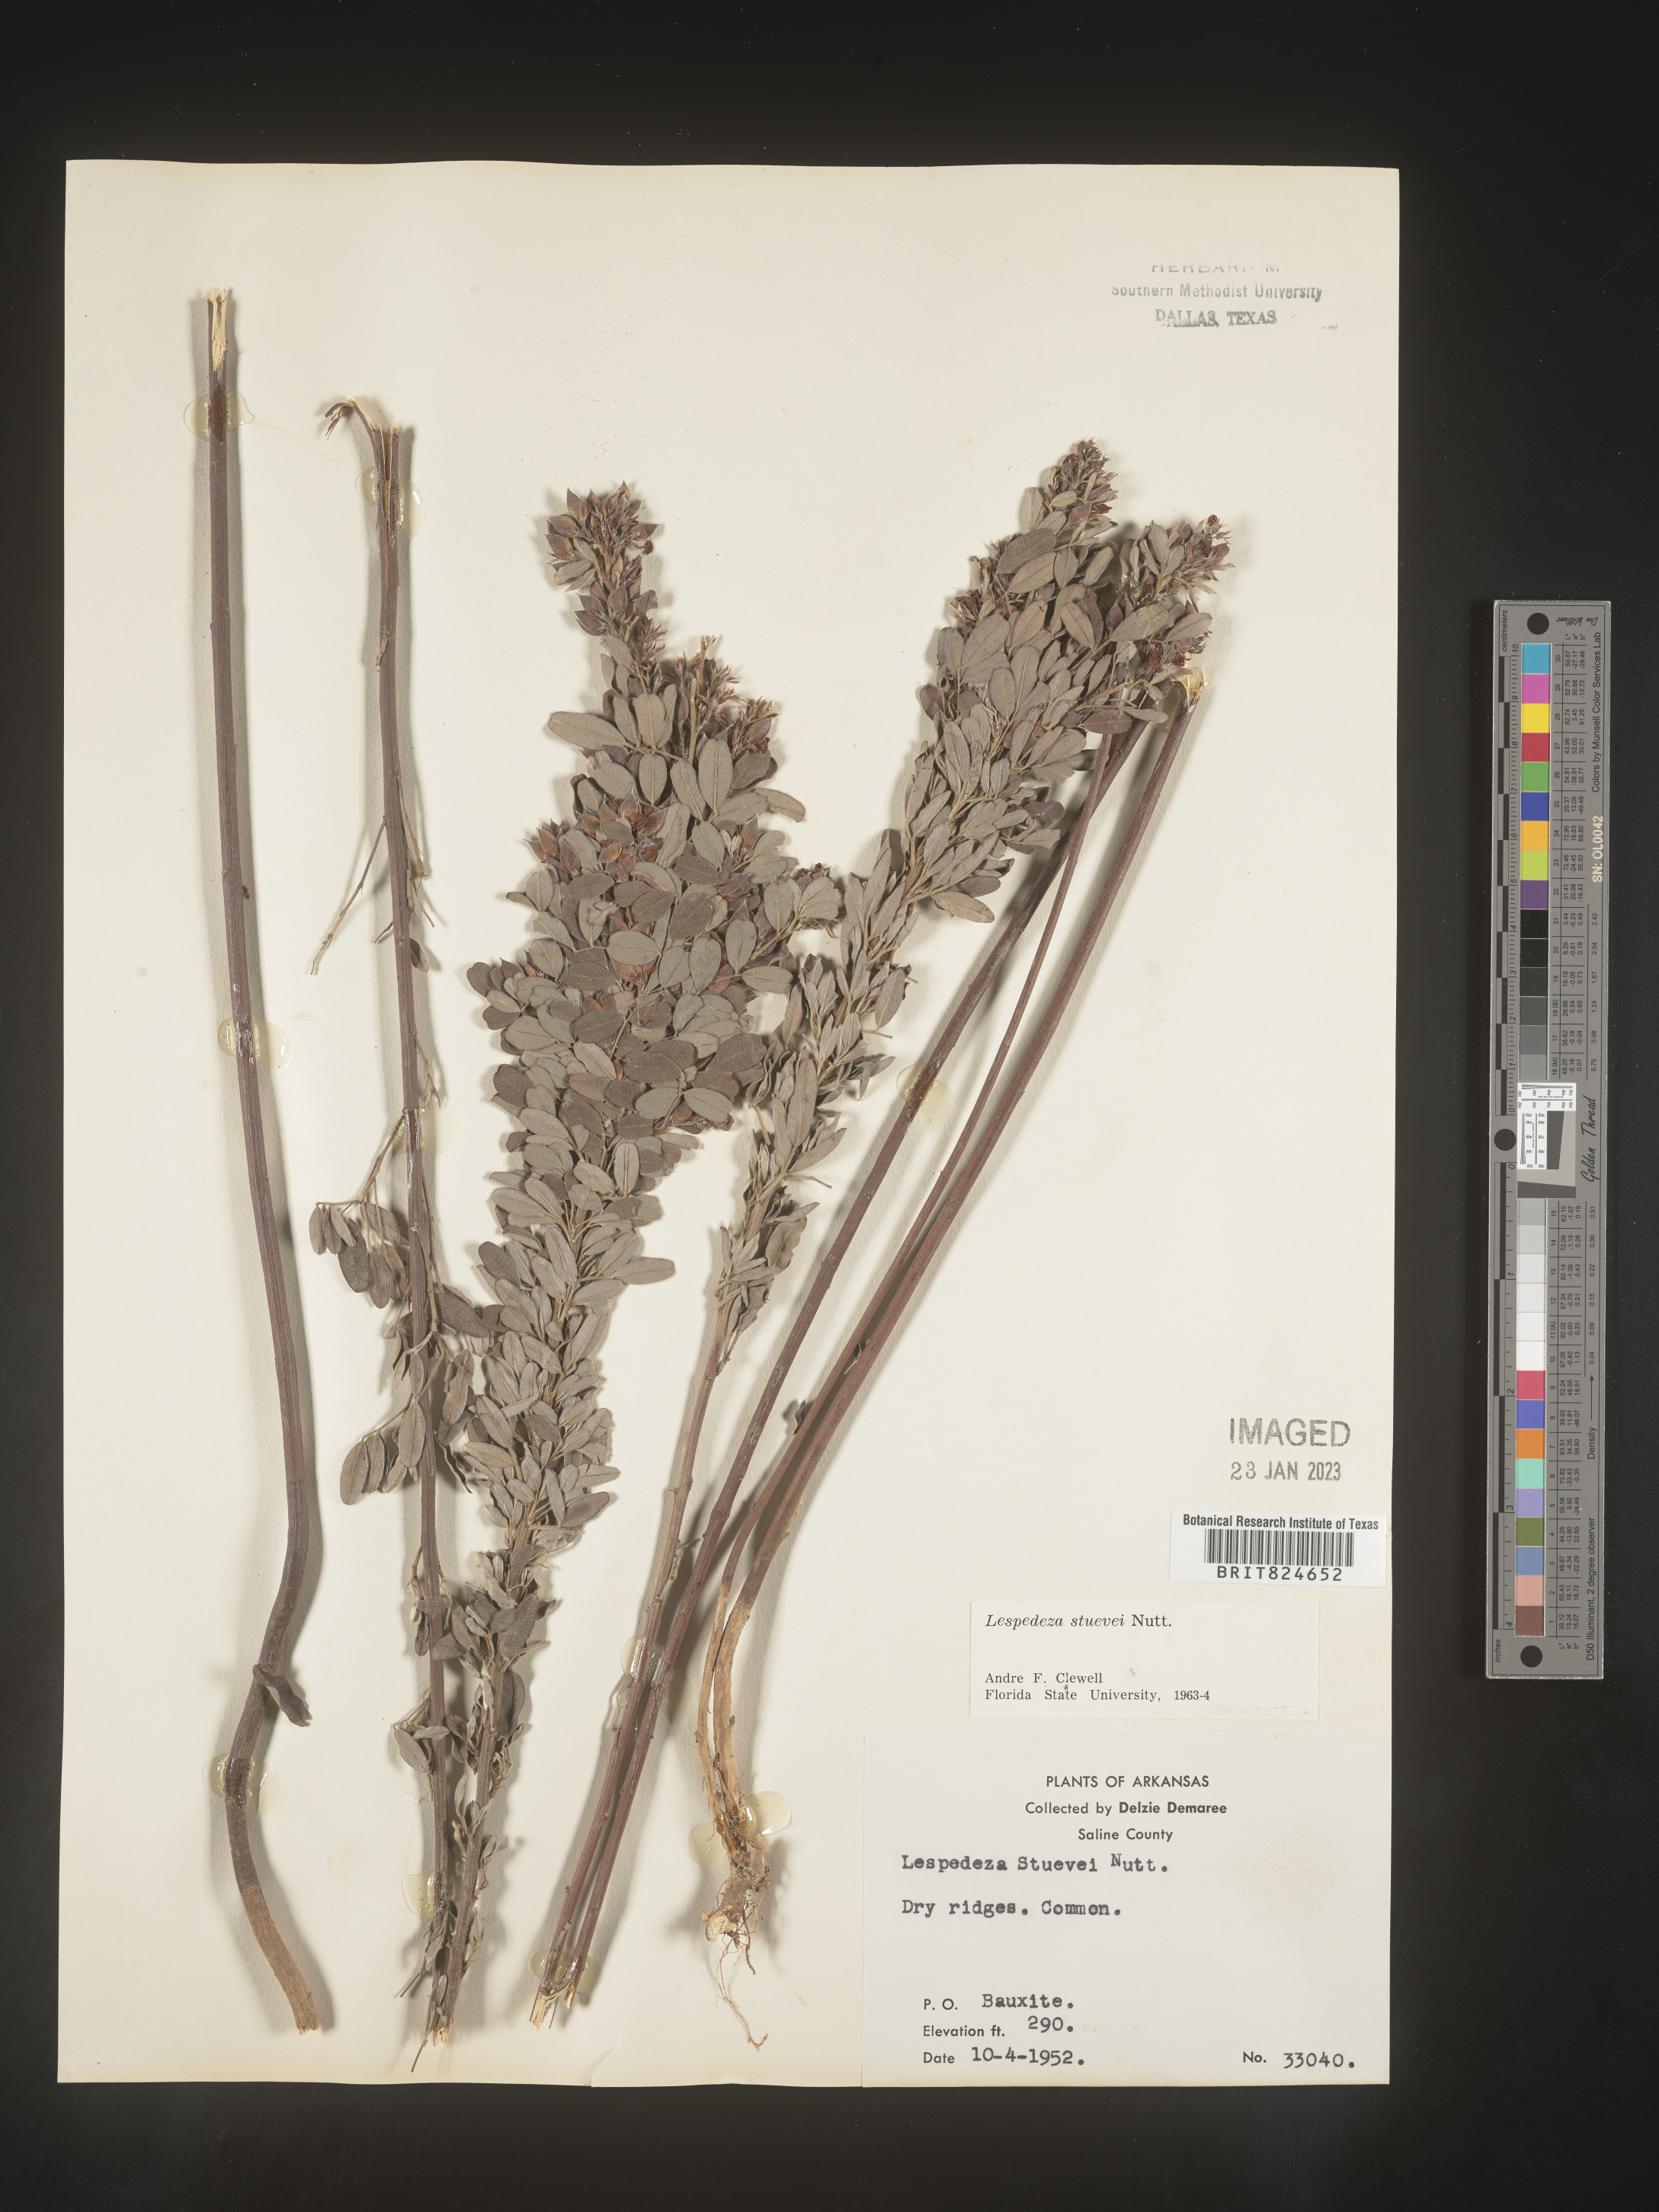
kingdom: Plantae
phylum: Tracheophyta
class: Magnoliopsida
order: Fabales
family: Fabaceae
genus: Lespedeza
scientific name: Lespedeza stuevei
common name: Tall bush-clover
